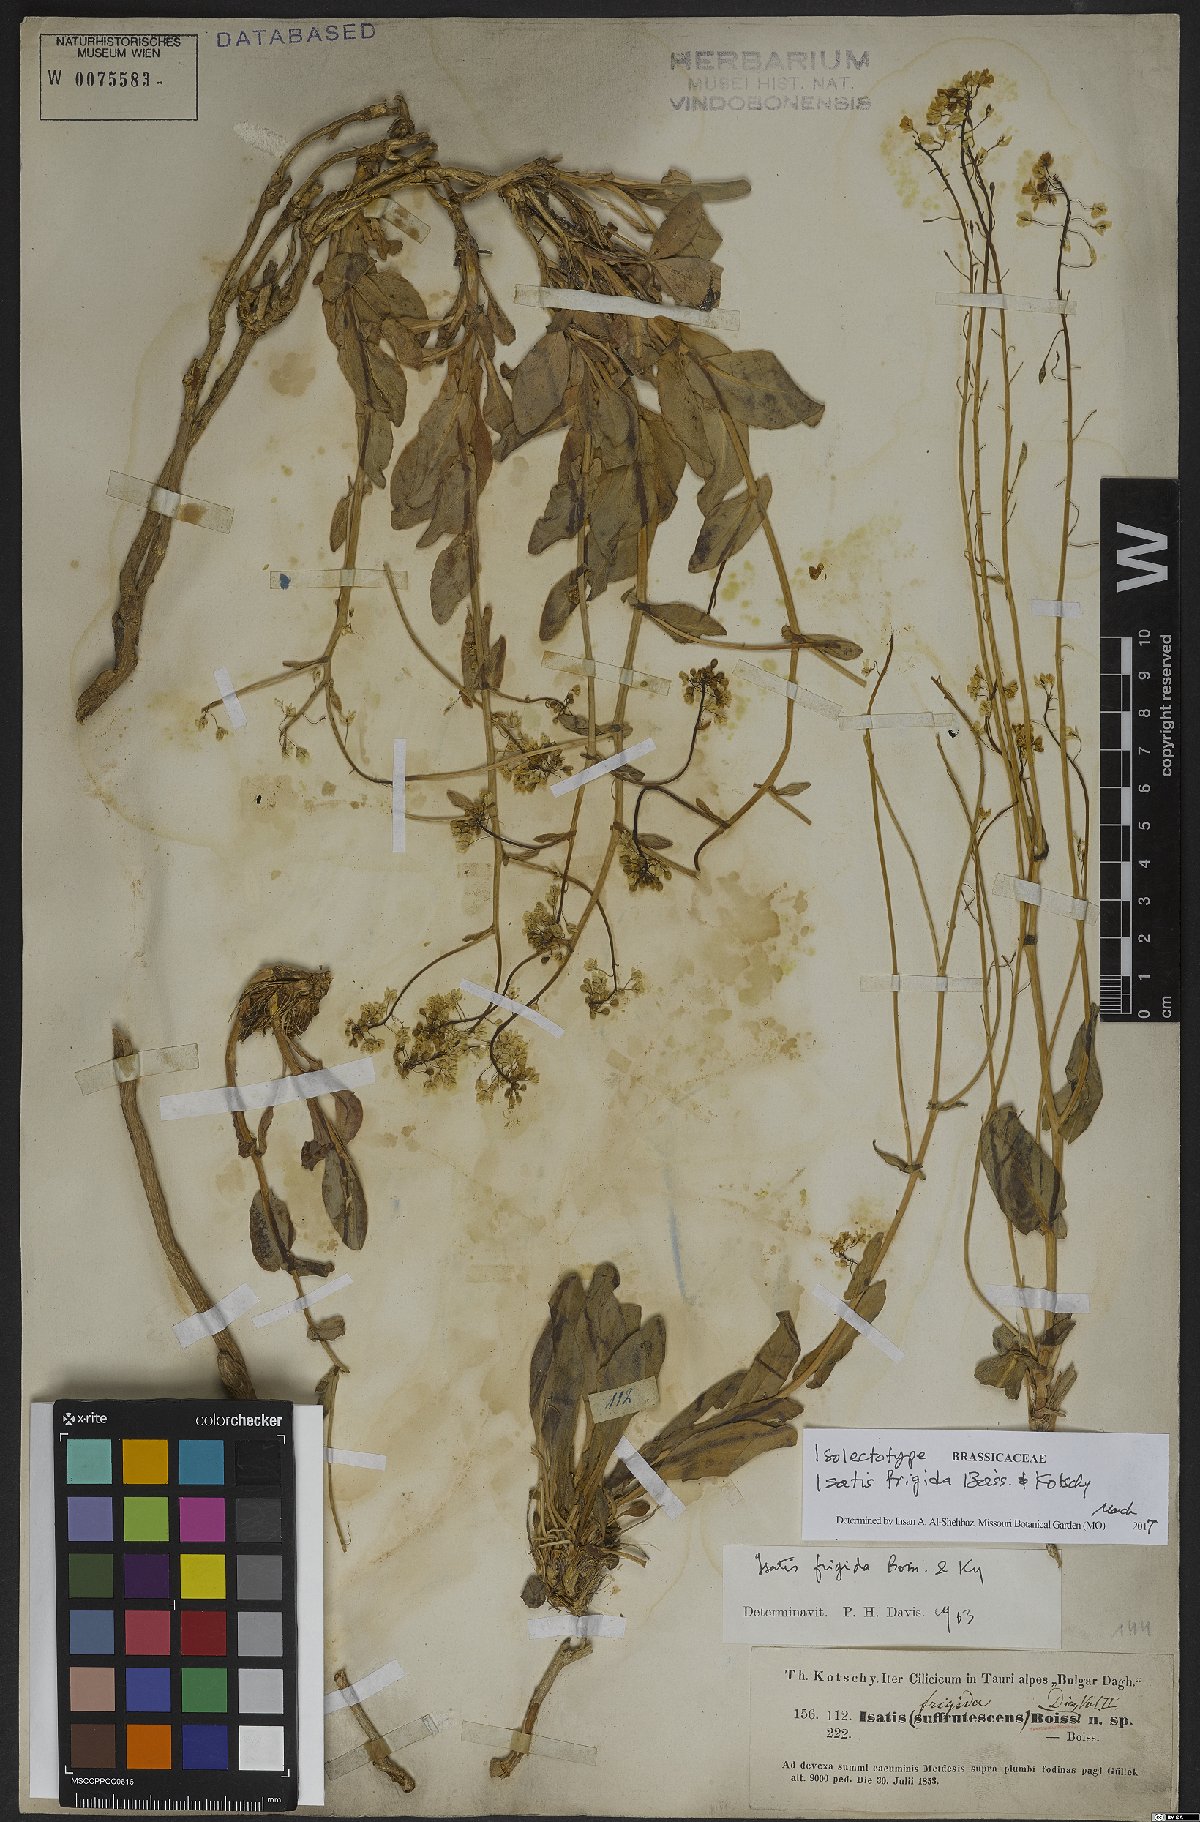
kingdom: Plantae
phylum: Tracheophyta
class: Magnoliopsida
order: Brassicales
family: Brassicaceae
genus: Isatis
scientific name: Isatis frigida
